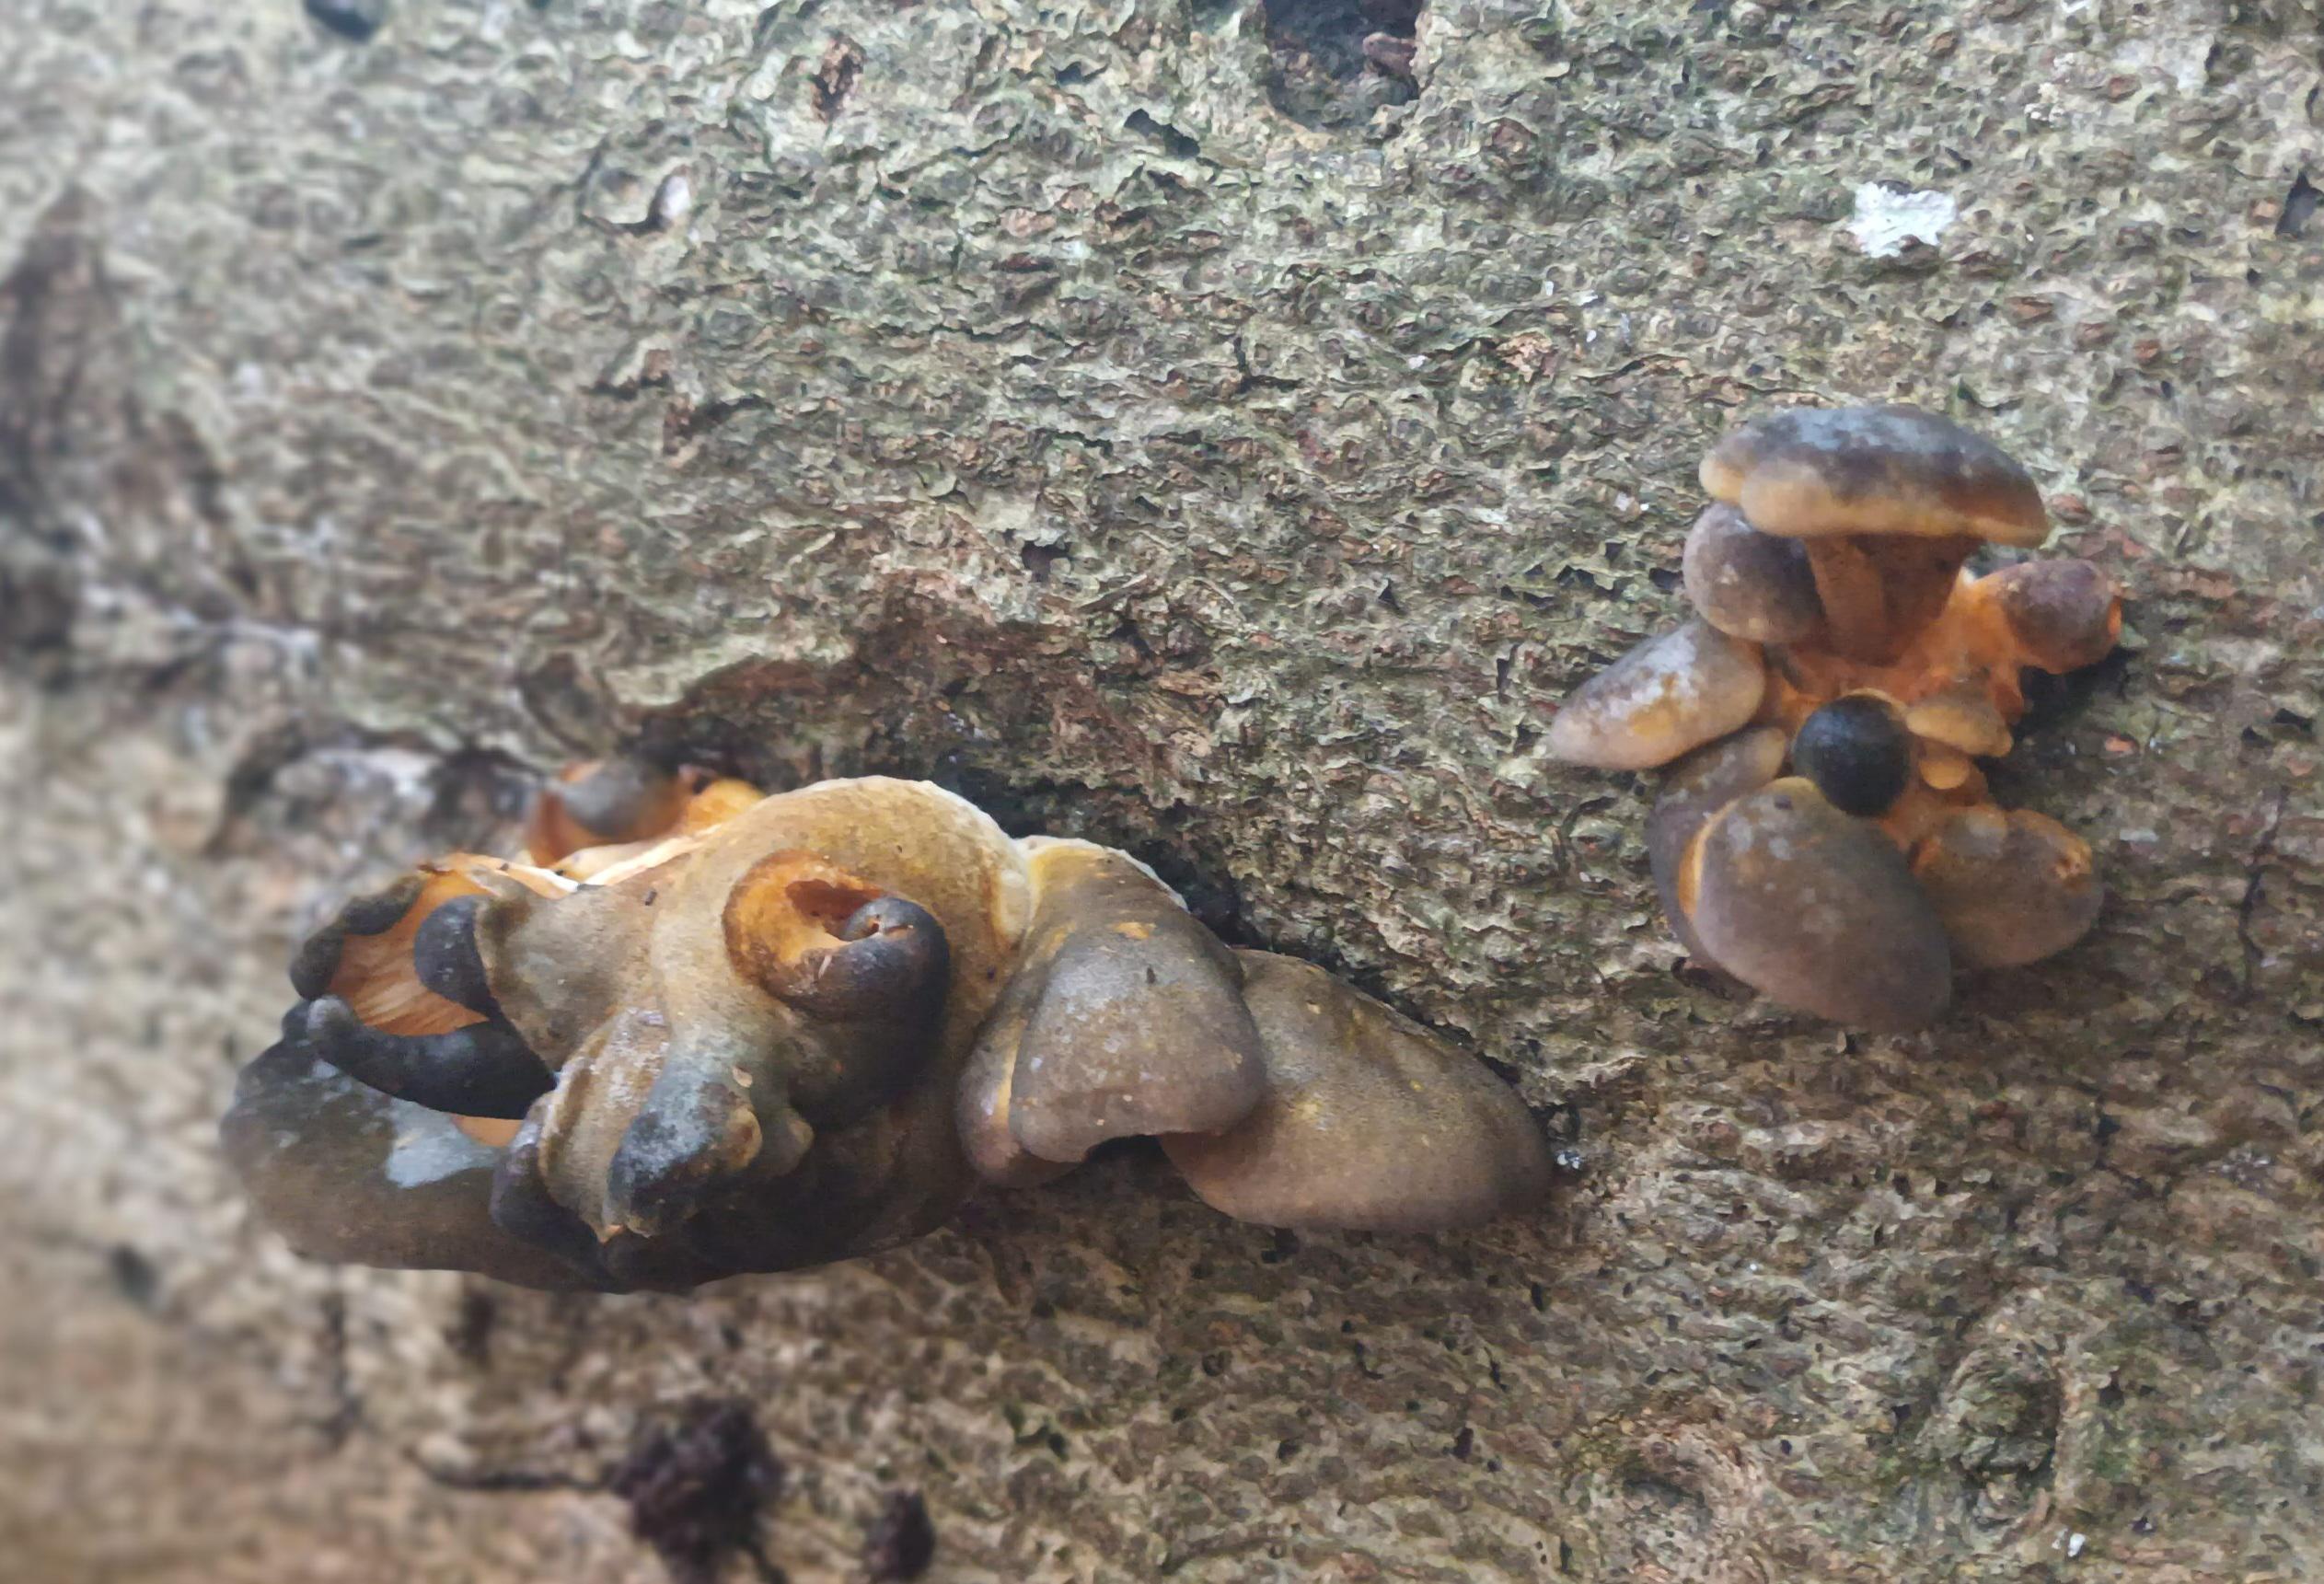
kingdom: Fungi
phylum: Basidiomycota
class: Agaricomycetes
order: Agaricales
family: Sarcomyxaceae
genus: Sarcomyxa
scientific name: Sarcomyxa serotina
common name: gummihat
